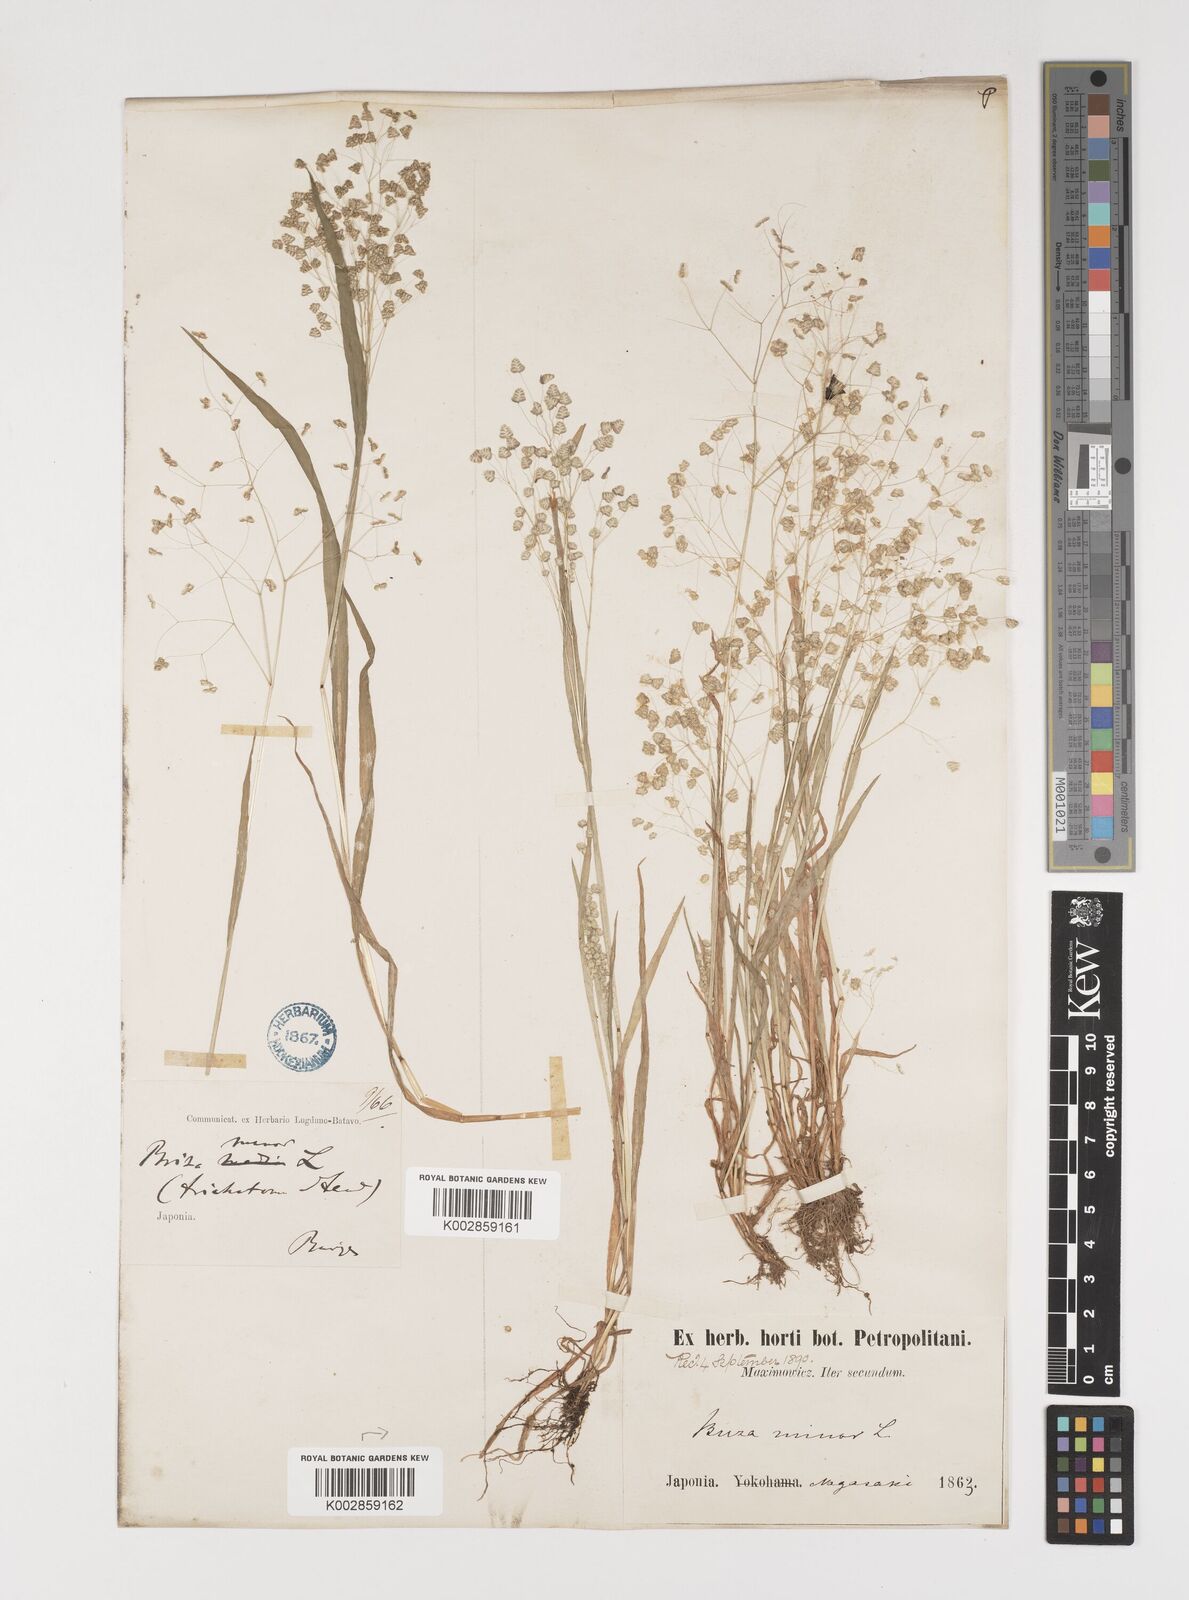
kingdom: Plantae
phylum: Tracheophyta
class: Liliopsida
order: Poales
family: Poaceae
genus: Briza
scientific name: Briza minor
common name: Lesser quaking-grass
